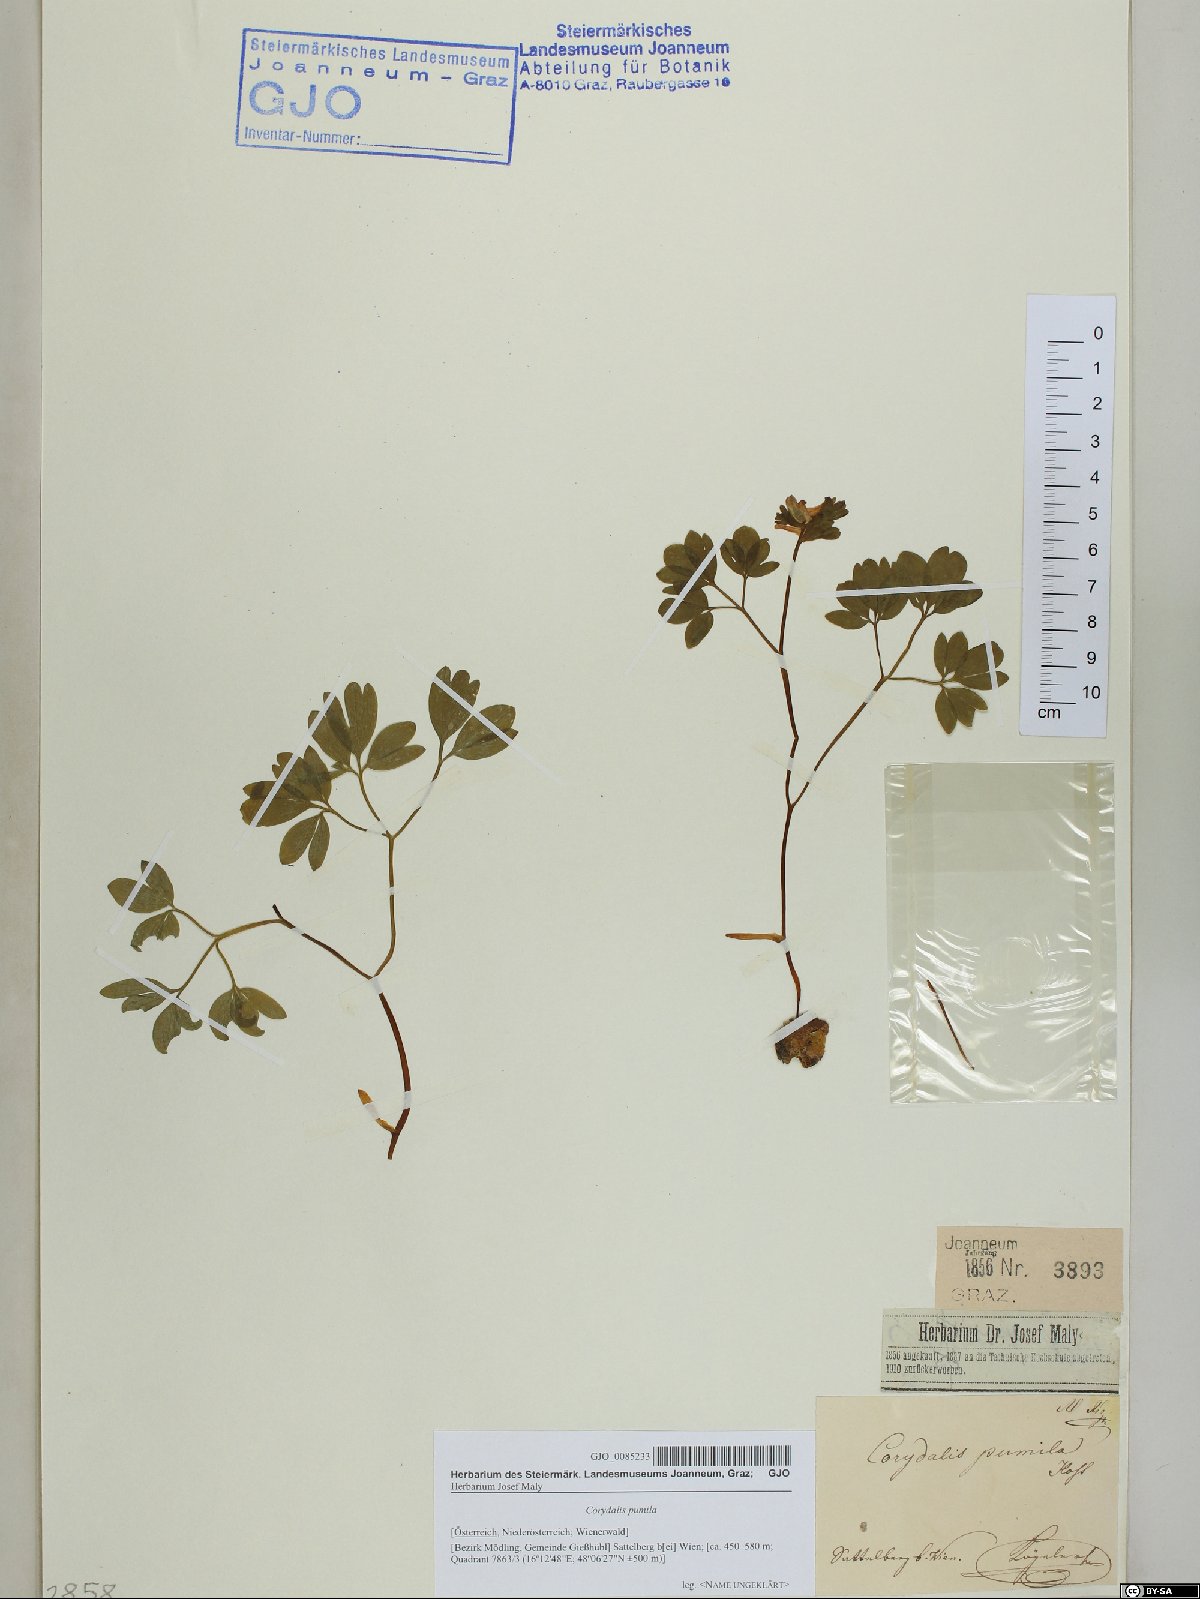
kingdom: Plantae
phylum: Tracheophyta
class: Magnoliopsida
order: Ranunculales
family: Papaveraceae
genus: Corydalis
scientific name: Corydalis pumila
